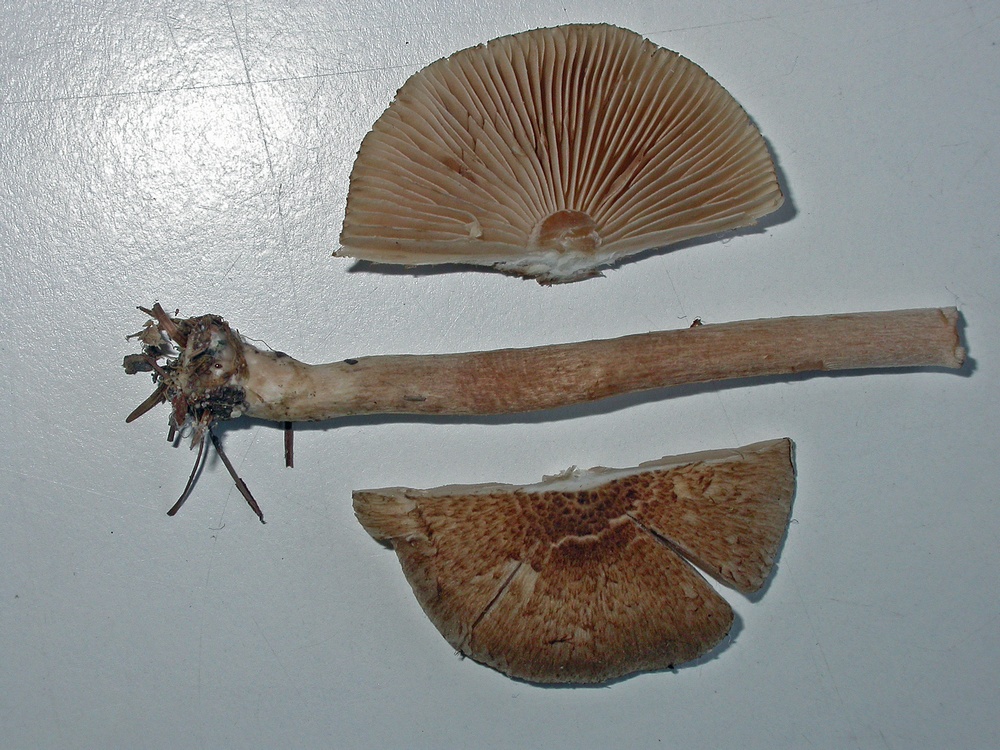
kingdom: Fungi
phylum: Basidiomycota
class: Agaricomycetes
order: Agaricales
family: Inocybaceae
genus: Inocybe
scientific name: Inocybe
